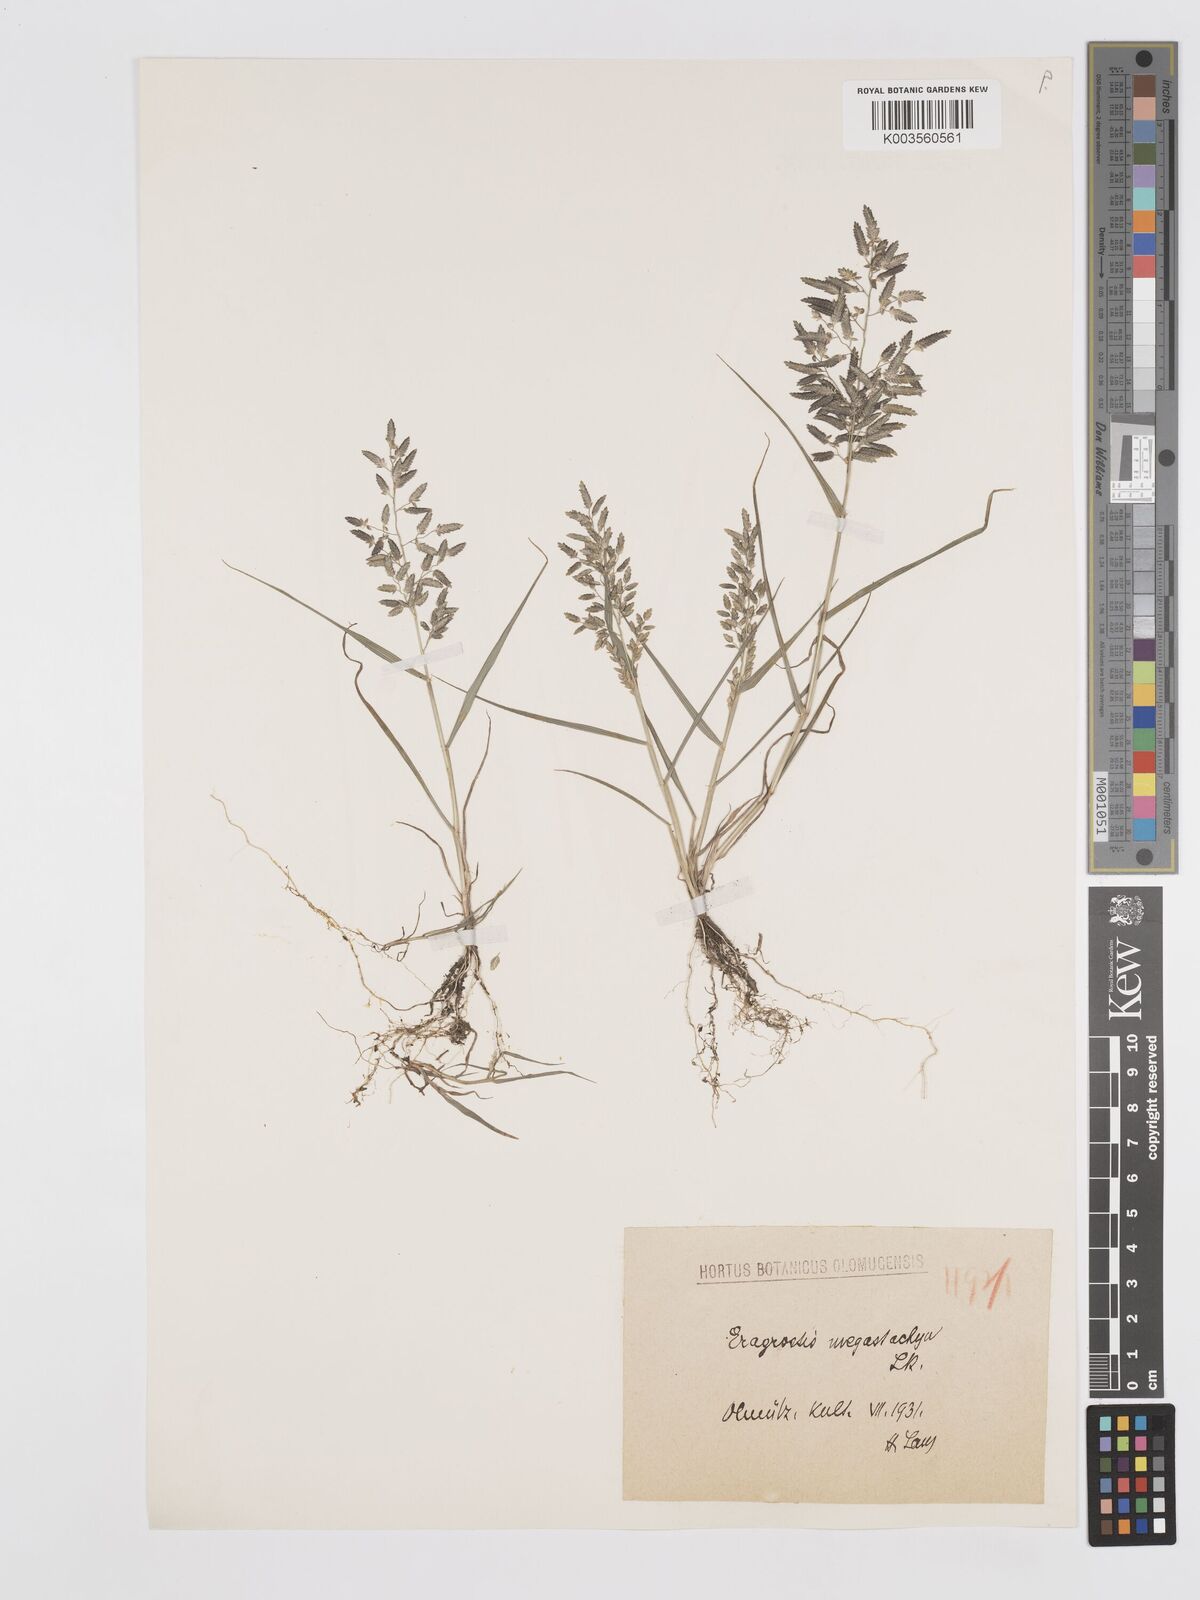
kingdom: Plantae
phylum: Tracheophyta
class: Liliopsida
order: Poales
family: Poaceae
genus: Eragrostis
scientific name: Eragrostis cilianensis
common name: Stinkgrass
